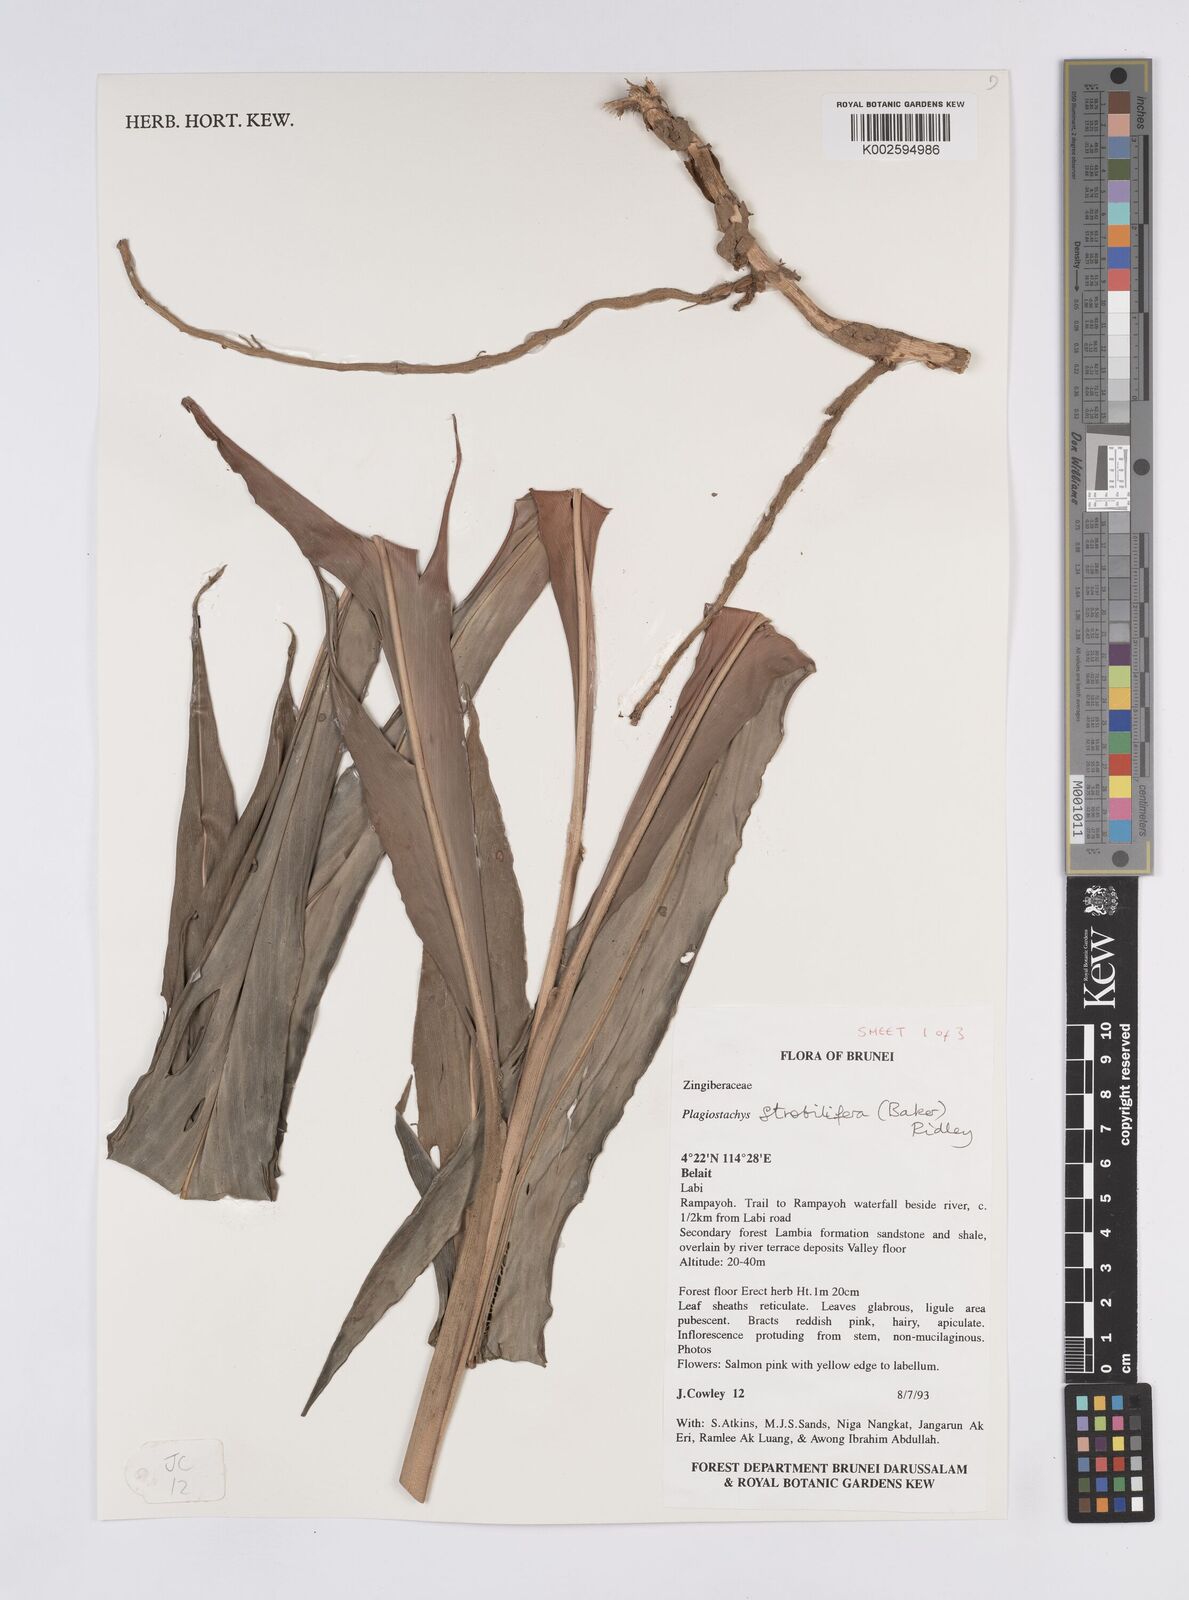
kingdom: Plantae
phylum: Tracheophyta
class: Liliopsida
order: Zingiberales
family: Zingiberaceae
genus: Plagiostachys
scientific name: Plagiostachys strobilifera
